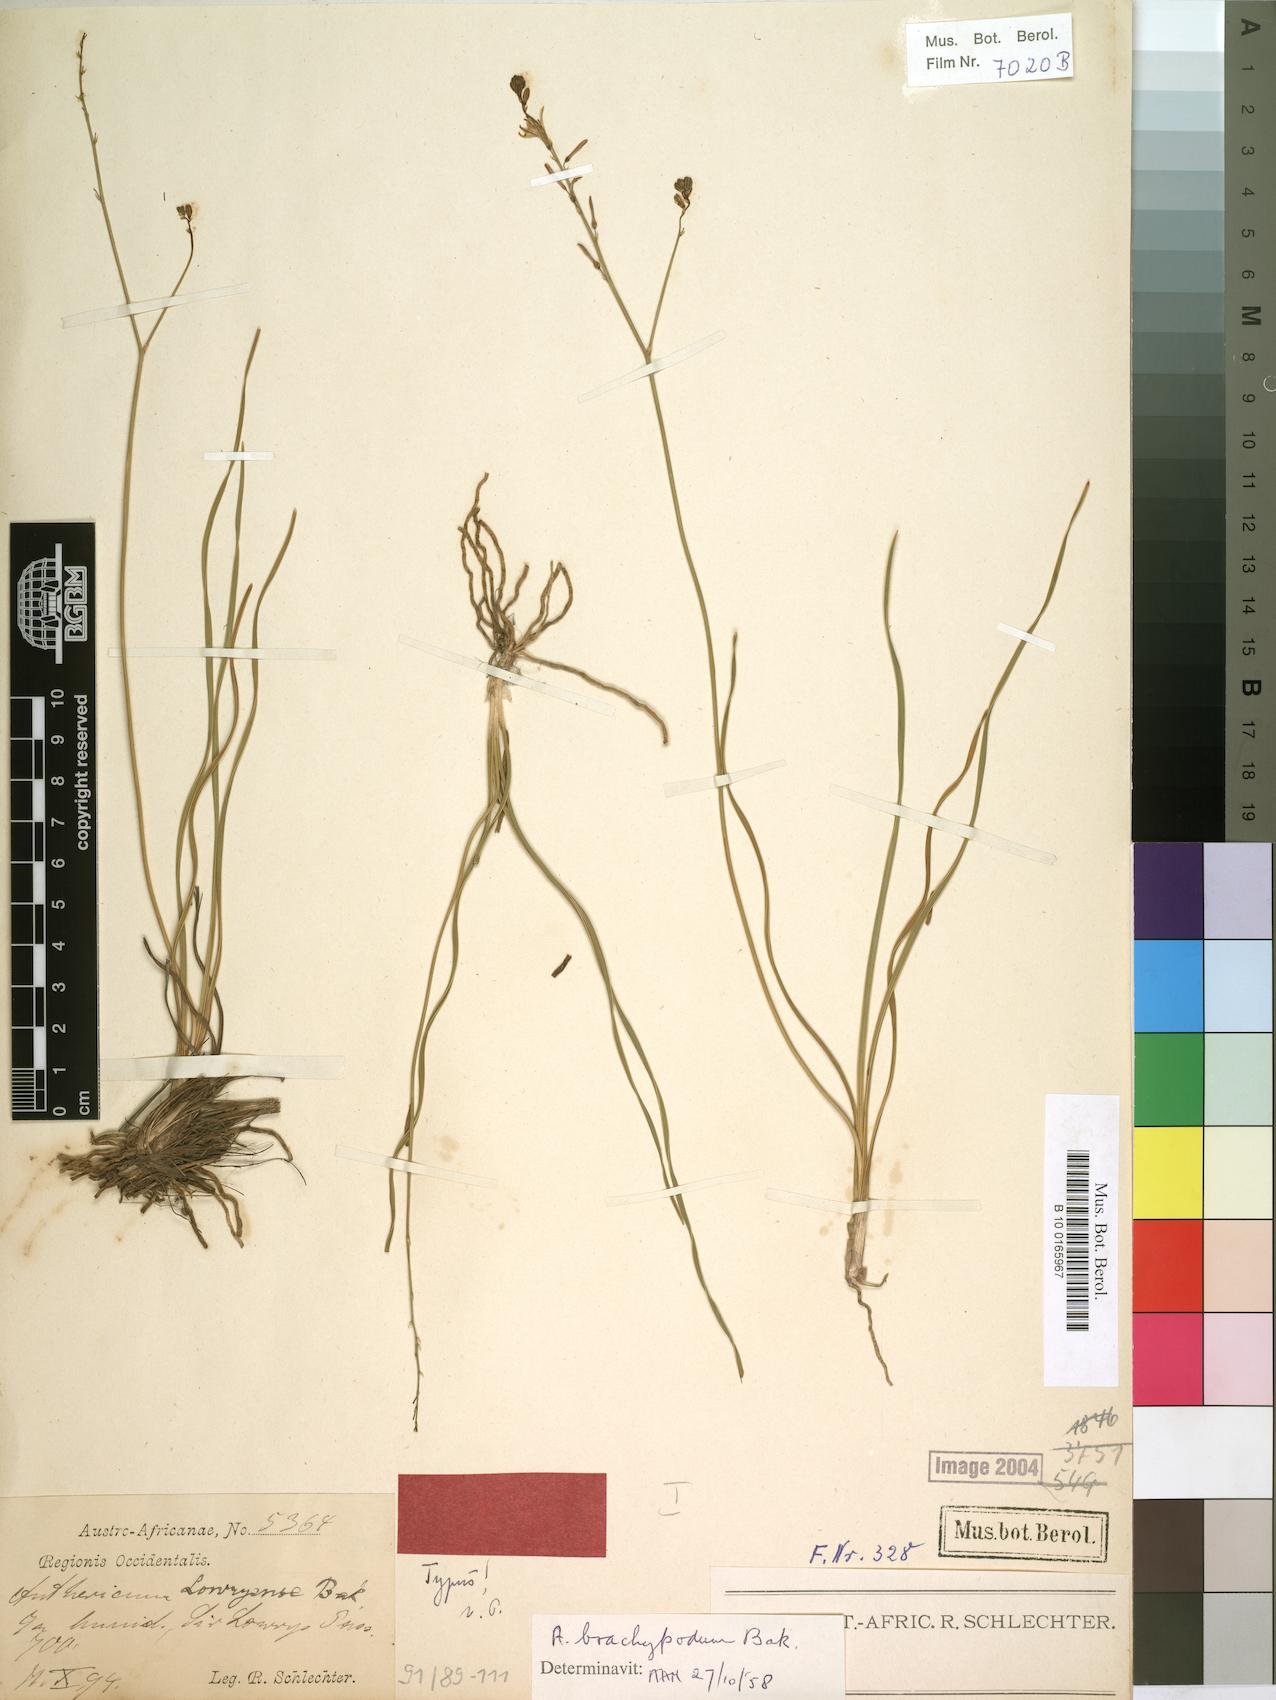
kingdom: Plantae
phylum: Tracheophyta
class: Liliopsida
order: Asparagales
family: Asphodelaceae
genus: Trachyandra
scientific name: Trachyandra brachypoda
